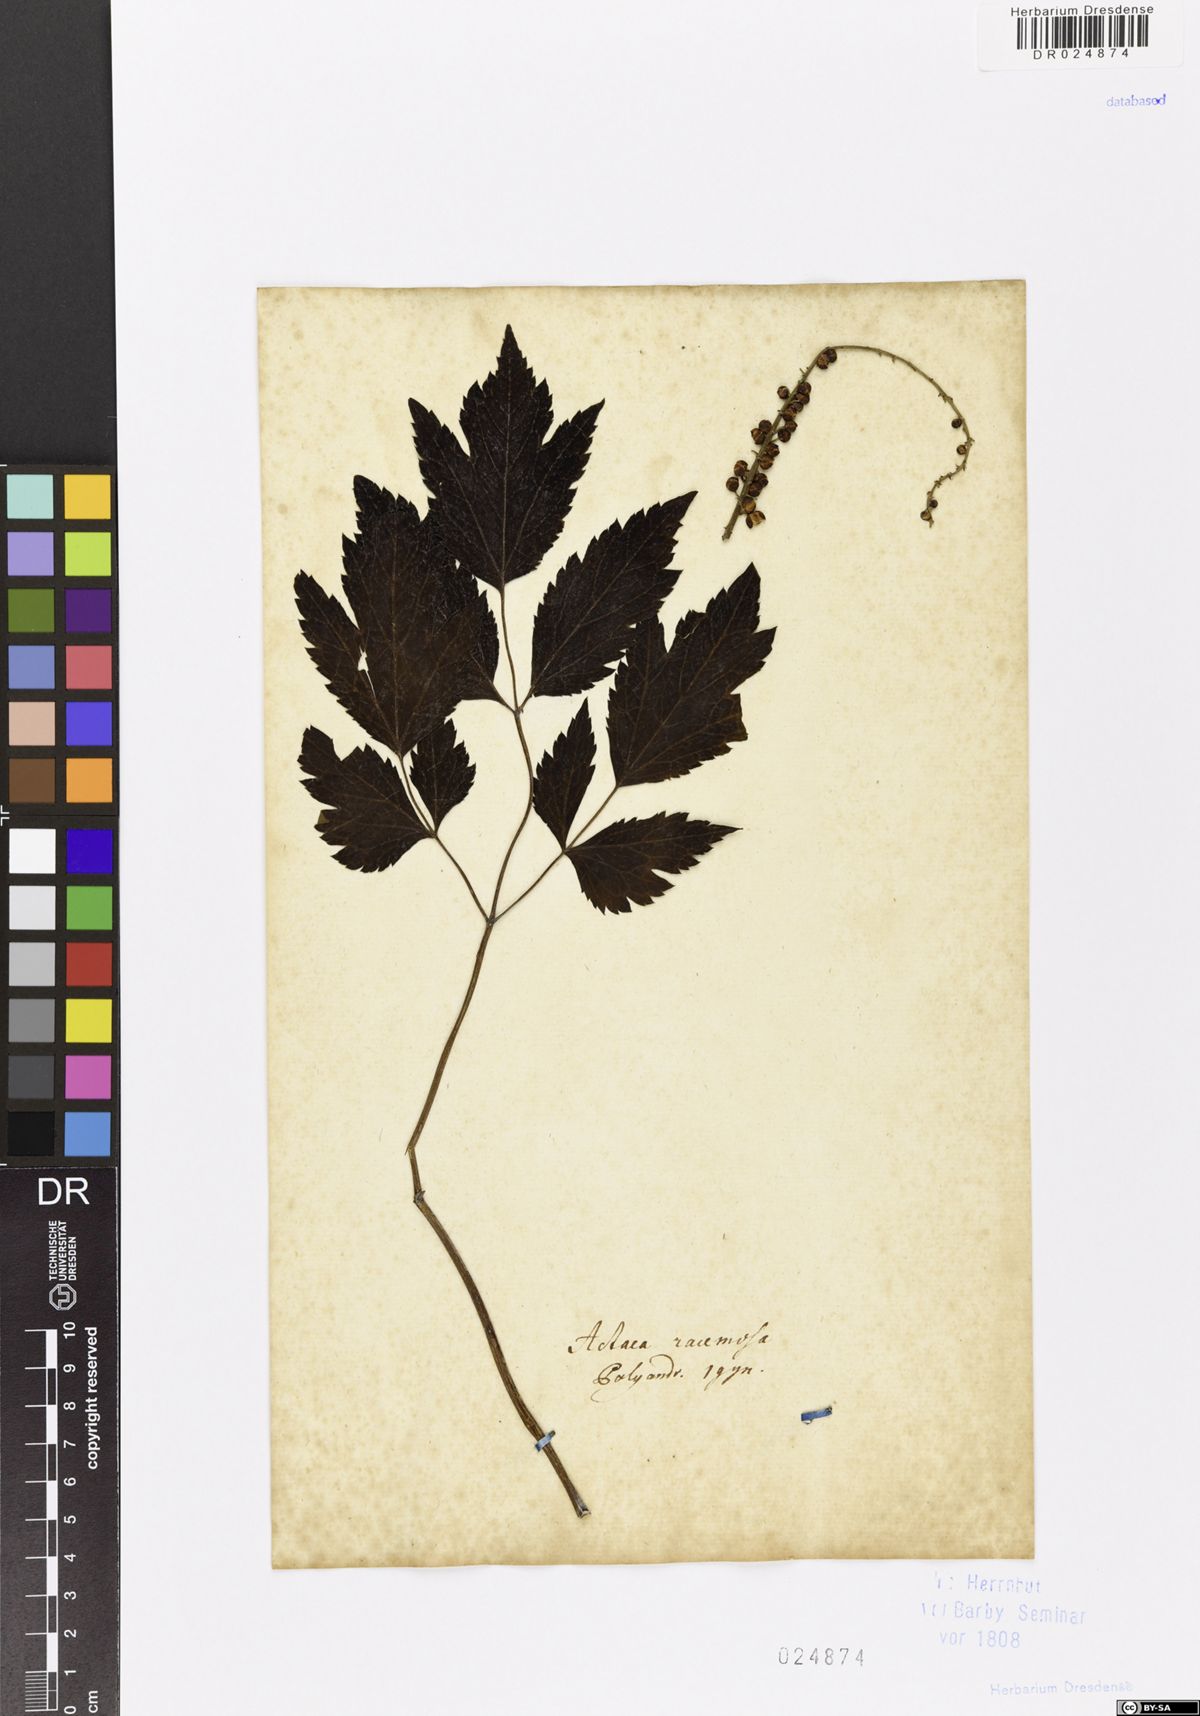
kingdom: Plantae
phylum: Tracheophyta
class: Magnoliopsida
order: Ranunculales
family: Ranunculaceae
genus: Actaea
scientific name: Actaea racemosa
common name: Black cohosh
